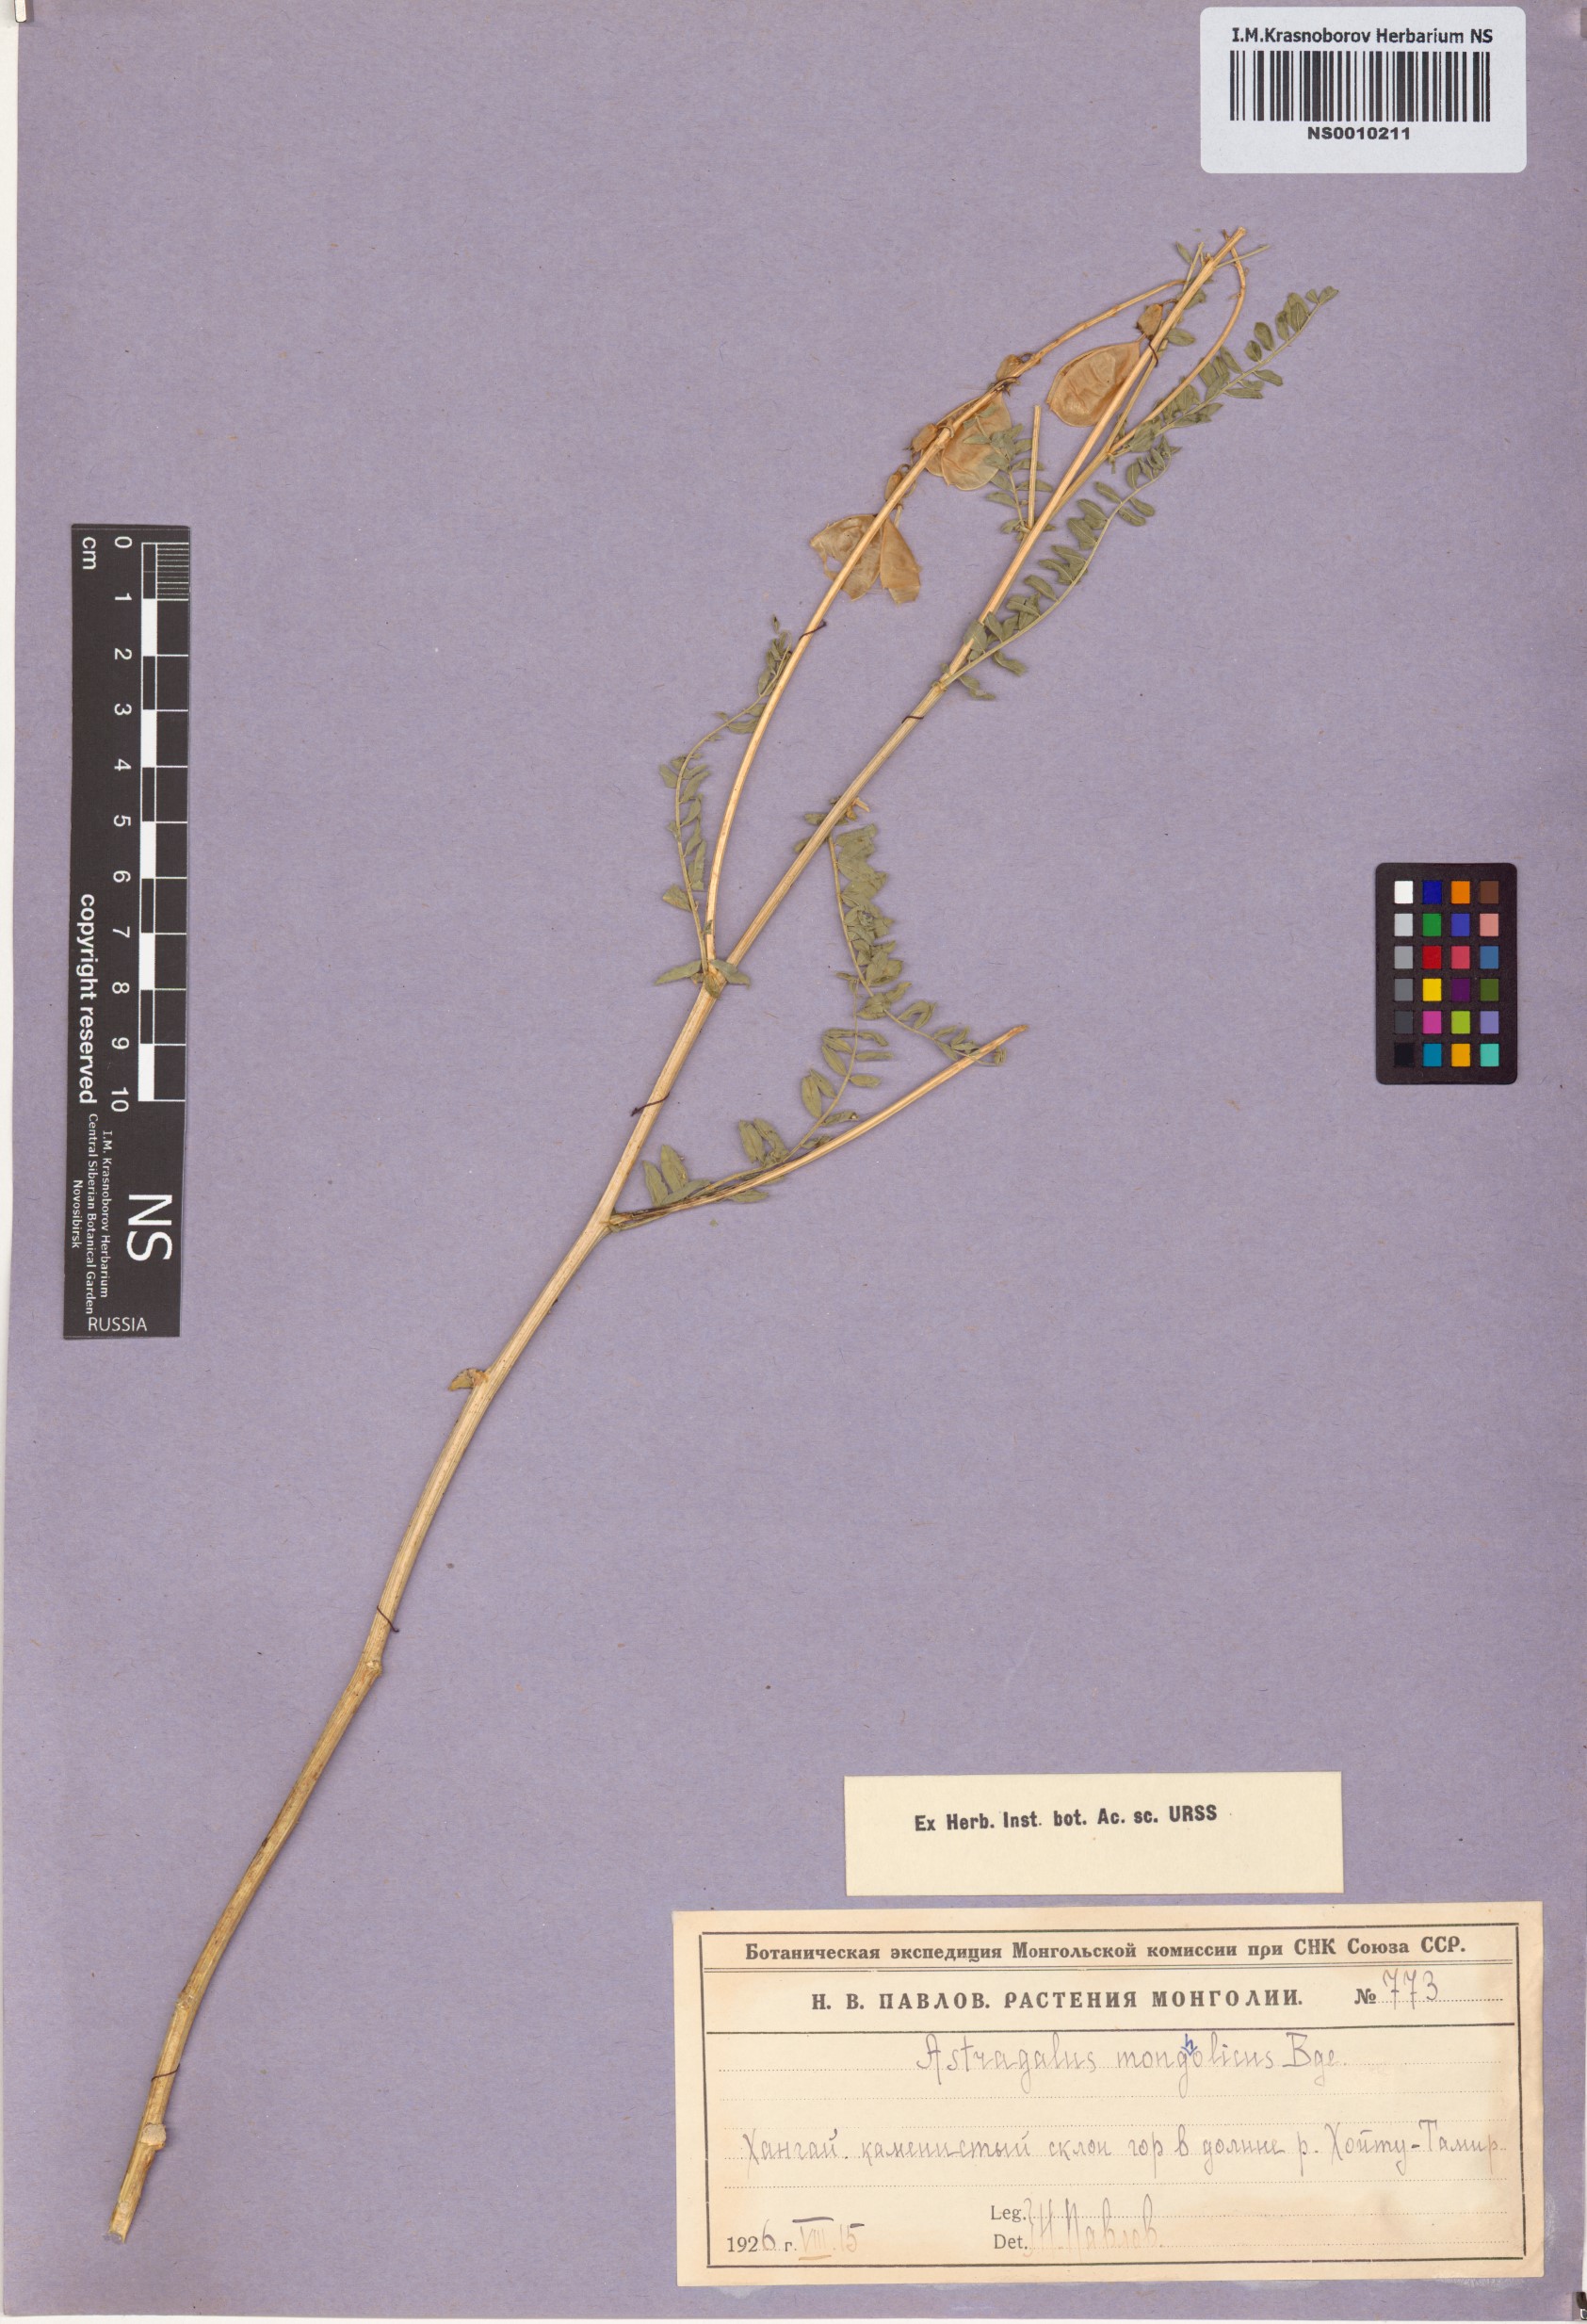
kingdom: Plantae
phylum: Tracheophyta
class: Magnoliopsida
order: Fabales
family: Fabaceae
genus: Astragalus
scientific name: Astragalus mongholicus
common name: Membranous milk-vetch
